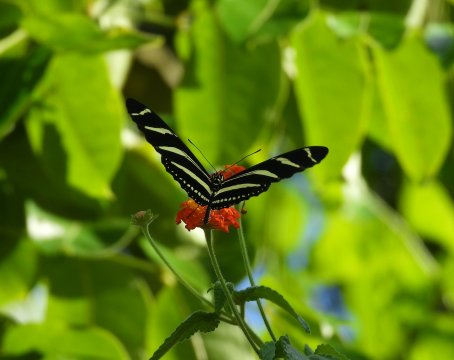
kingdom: Animalia
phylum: Arthropoda
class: Insecta
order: Lepidoptera
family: Nymphalidae
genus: Heliconius
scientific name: Heliconius charithonia
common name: Zebra Longwing
